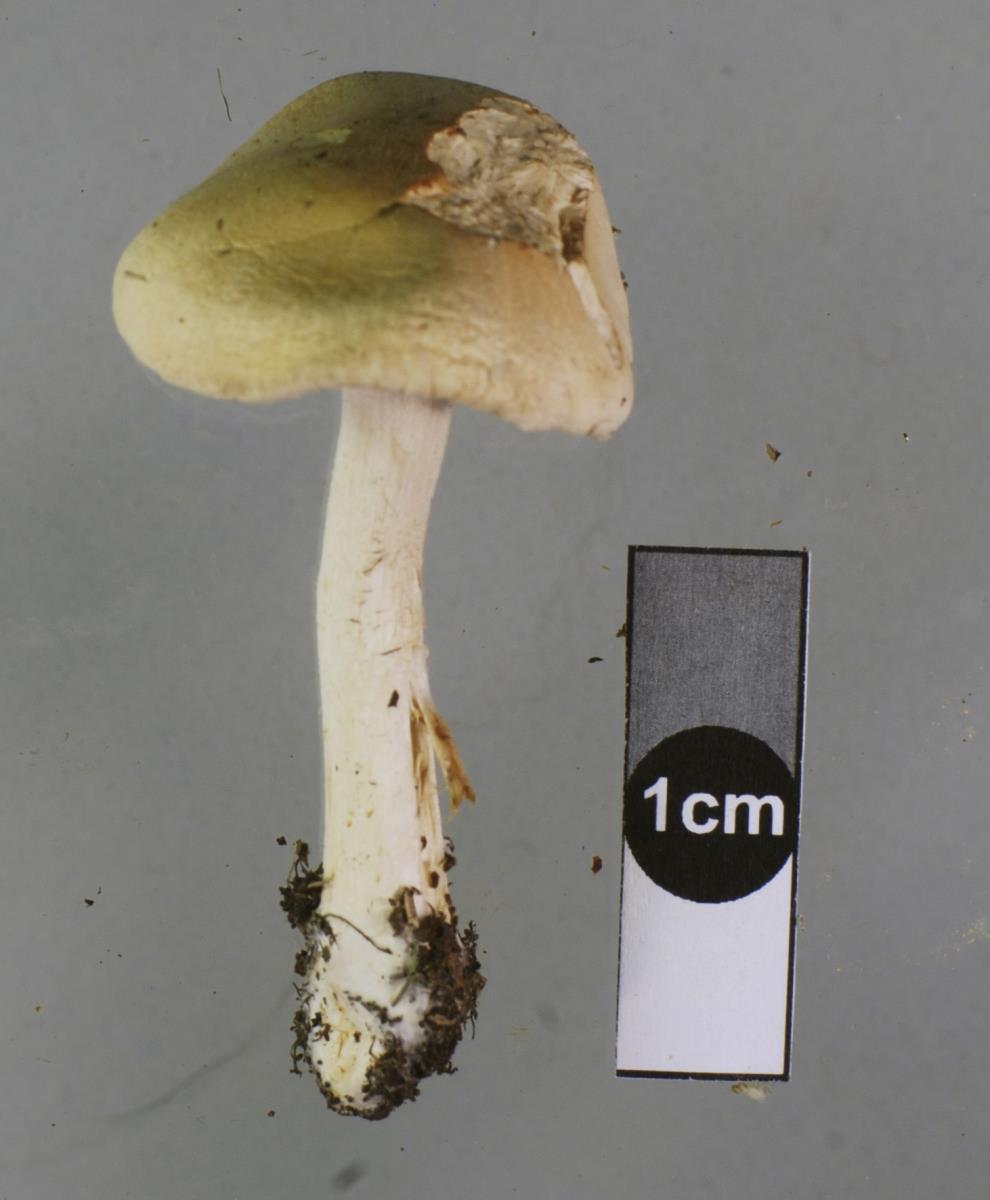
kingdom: Fungi
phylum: Basidiomycota
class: Agaricomycetes
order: Agaricales
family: Hymenogastraceae
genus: Hebeloma
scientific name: Hebeloma hiemale
